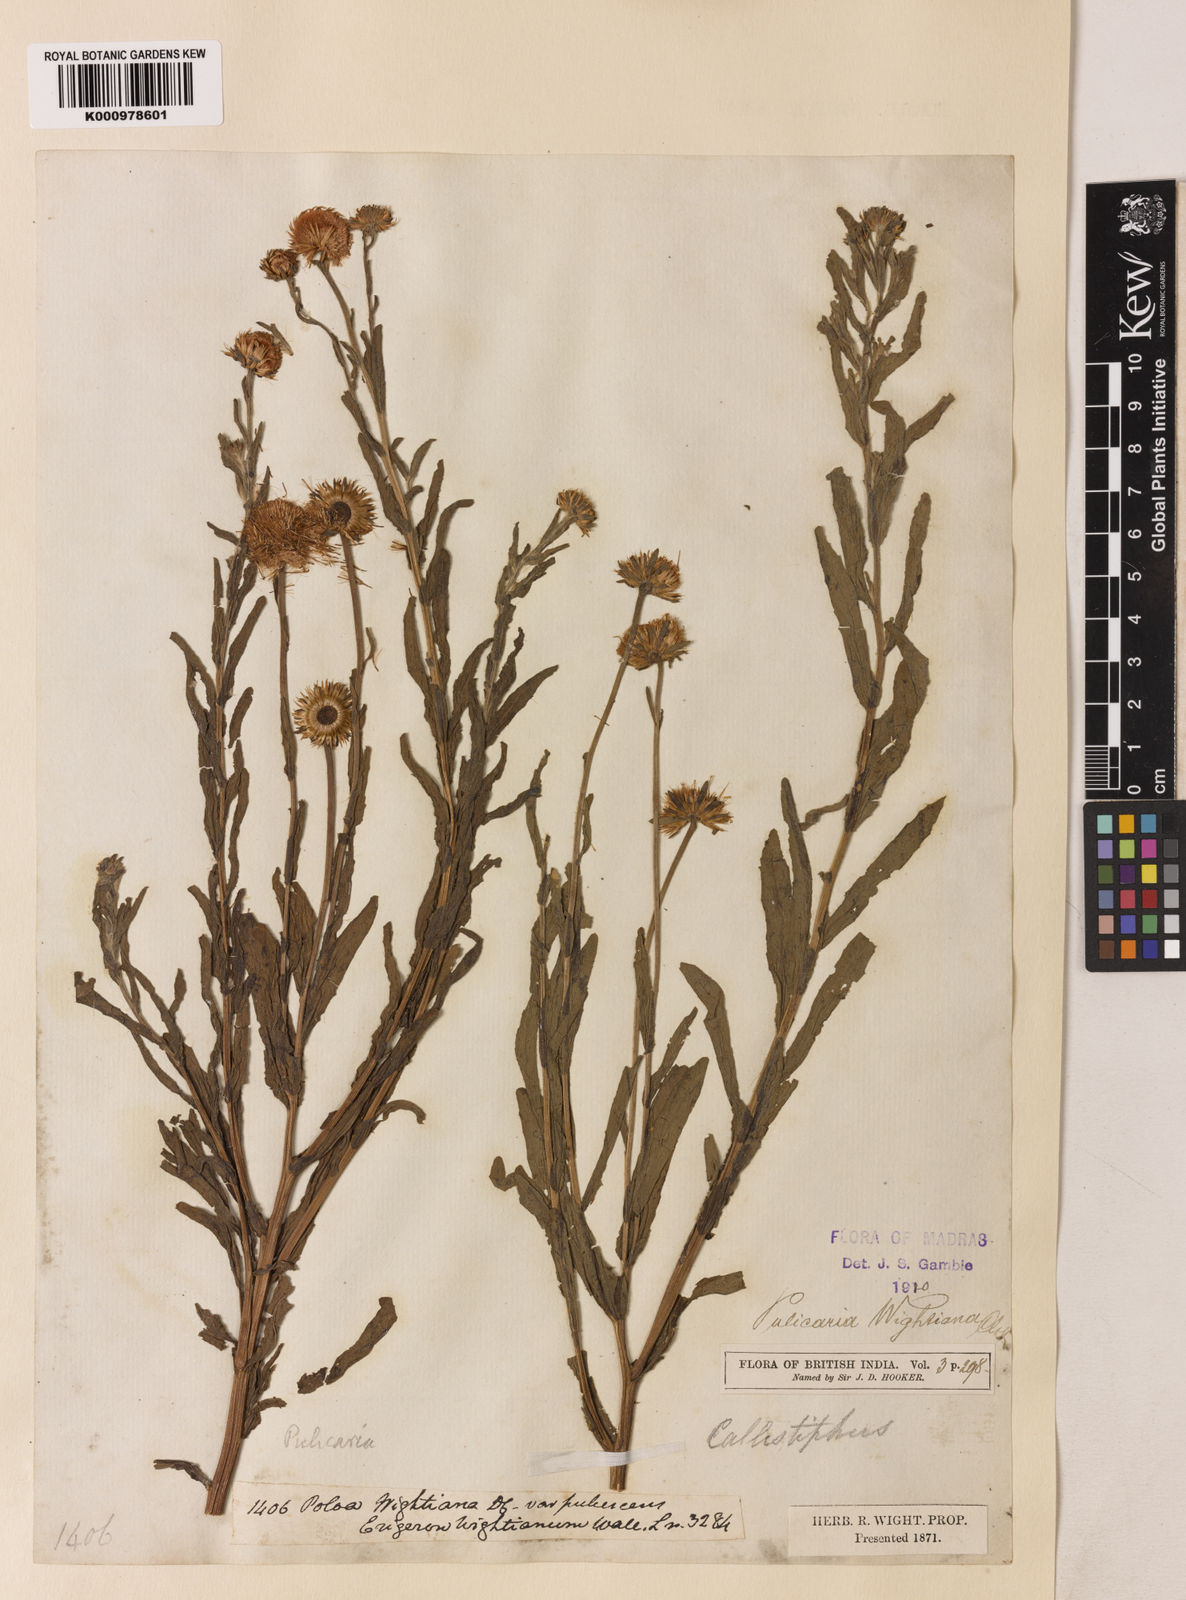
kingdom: Plantae
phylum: Tracheophyta
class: Magnoliopsida
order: Asterales
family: Asteraceae
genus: Pulicaria
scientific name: Pulicaria wightiana
